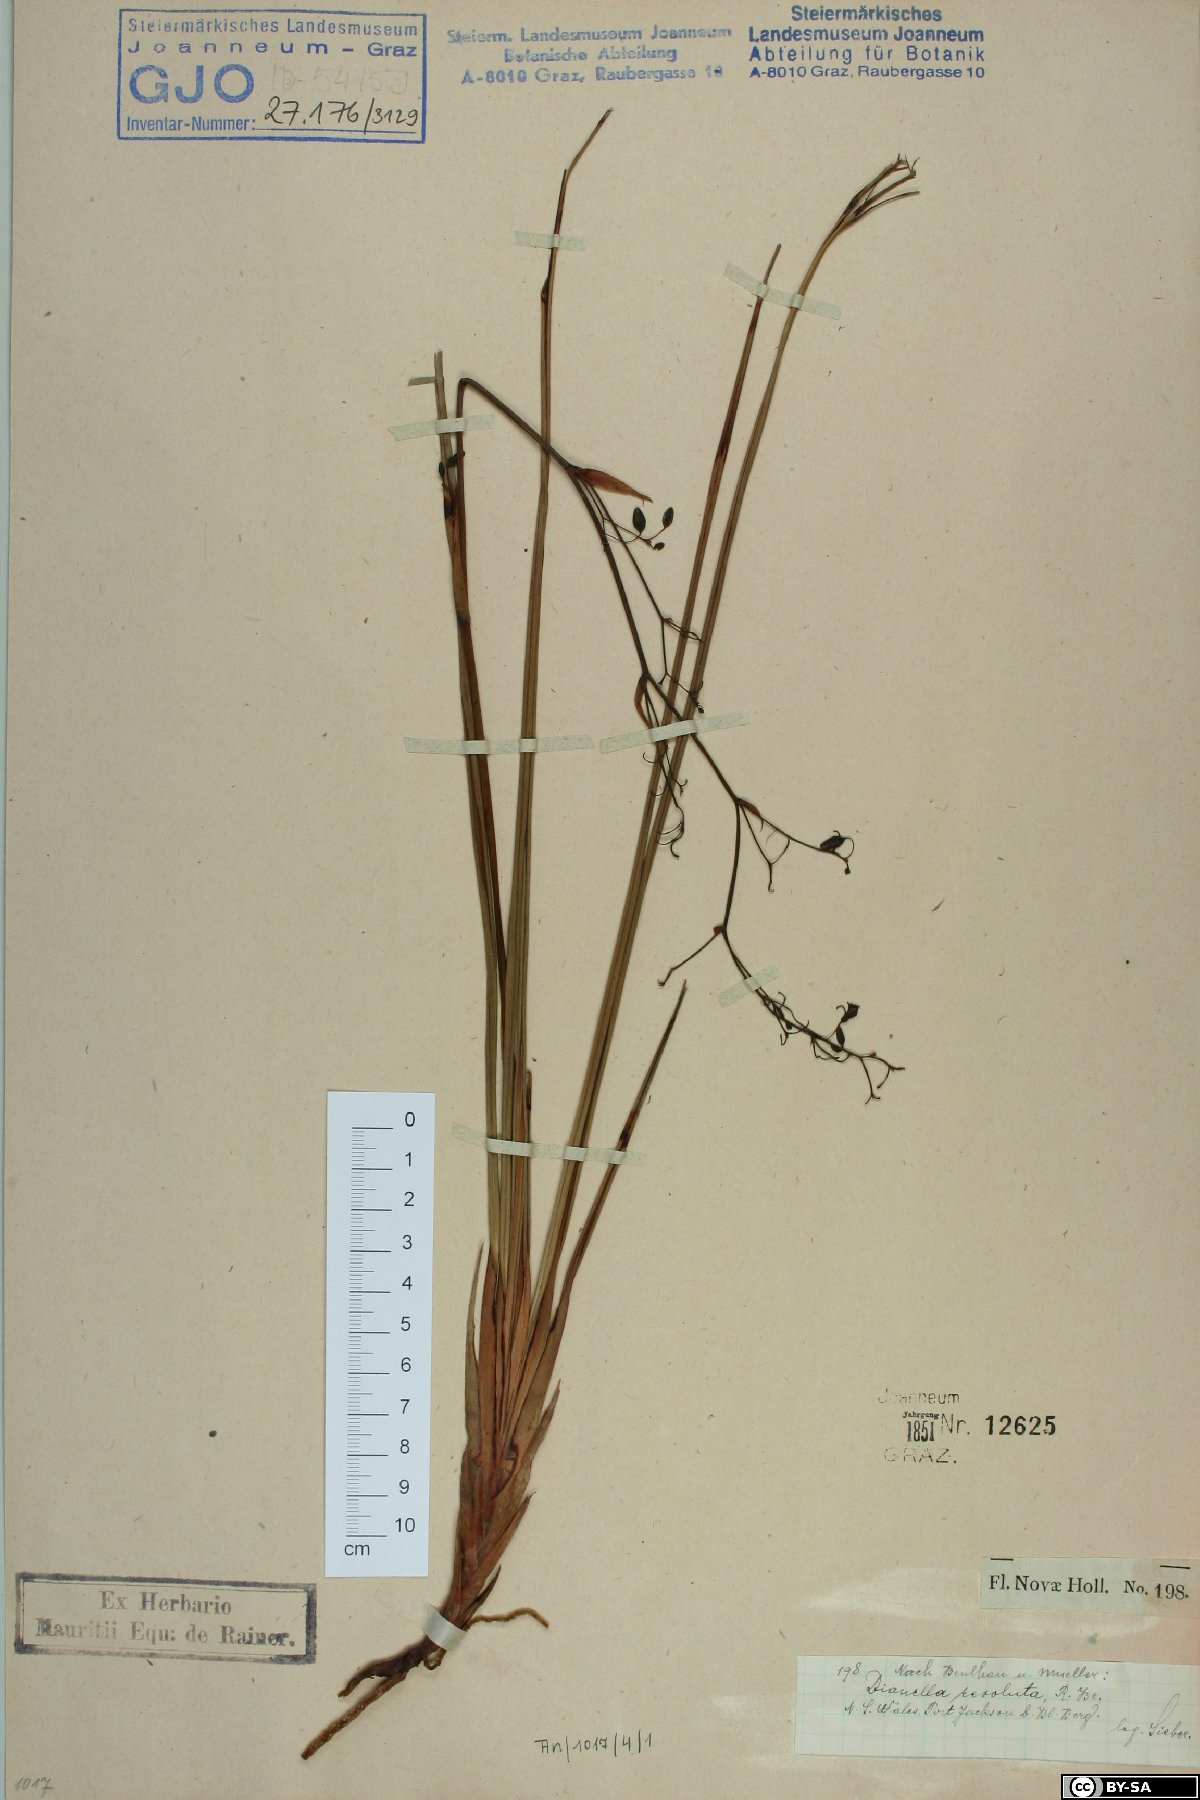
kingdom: Plantae
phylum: Tracheophyta
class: Liliopsida
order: Asparagales
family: Asphodelaceae
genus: Dianella
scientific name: Dianella revoluta
